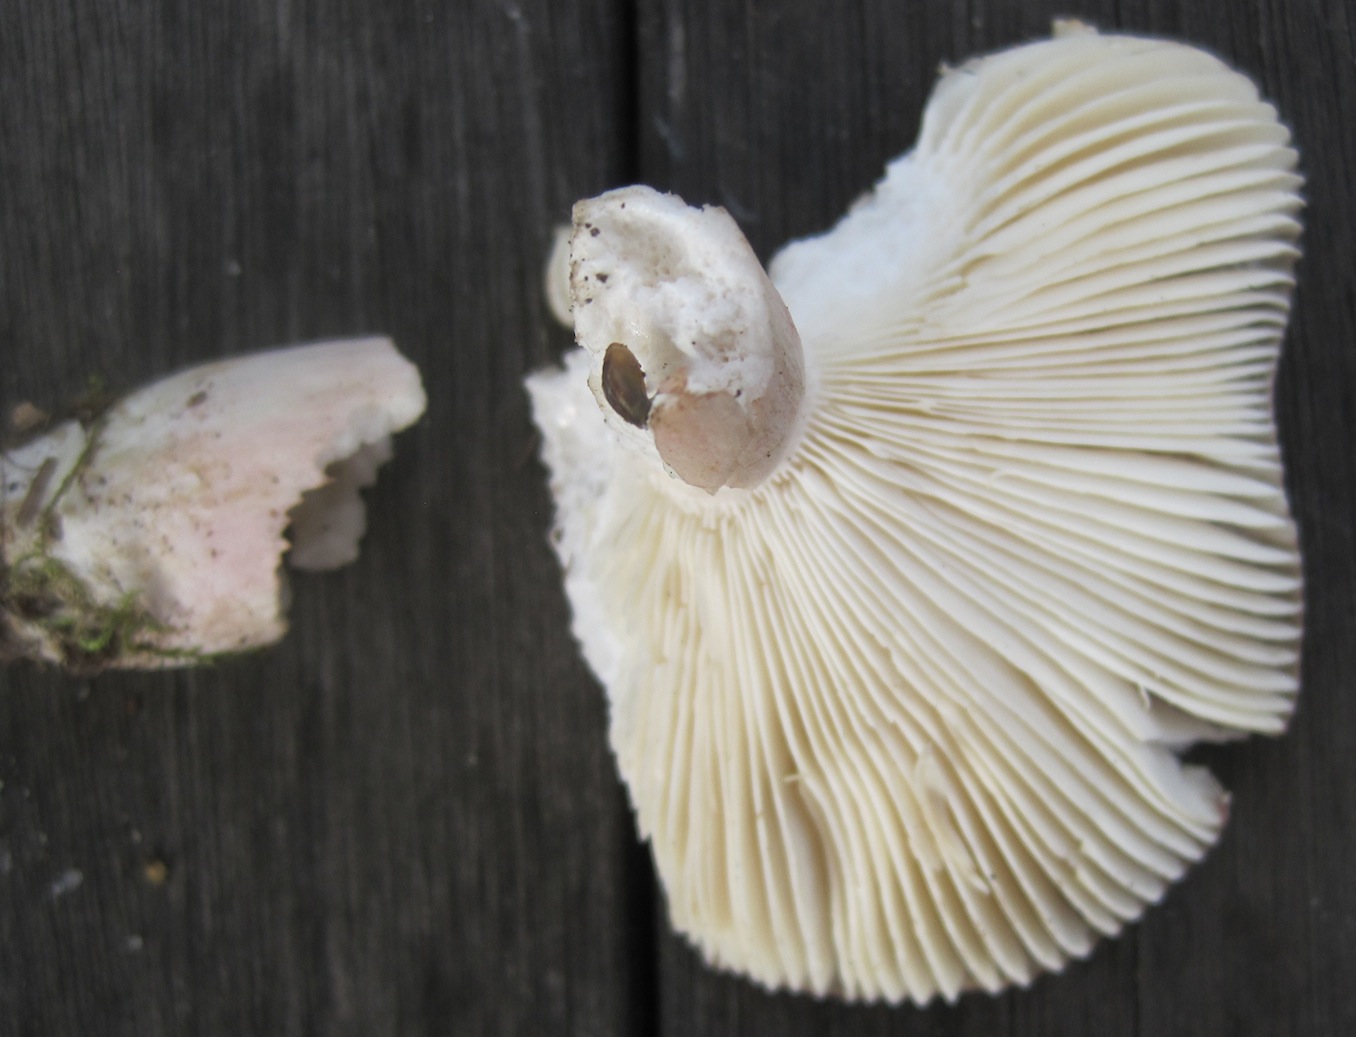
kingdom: Fungi
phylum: Basidiomycota
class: Agaricomycetes
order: Russulales
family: Russulaceae
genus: Russula
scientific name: Russula gracillima
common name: slank skørhat
